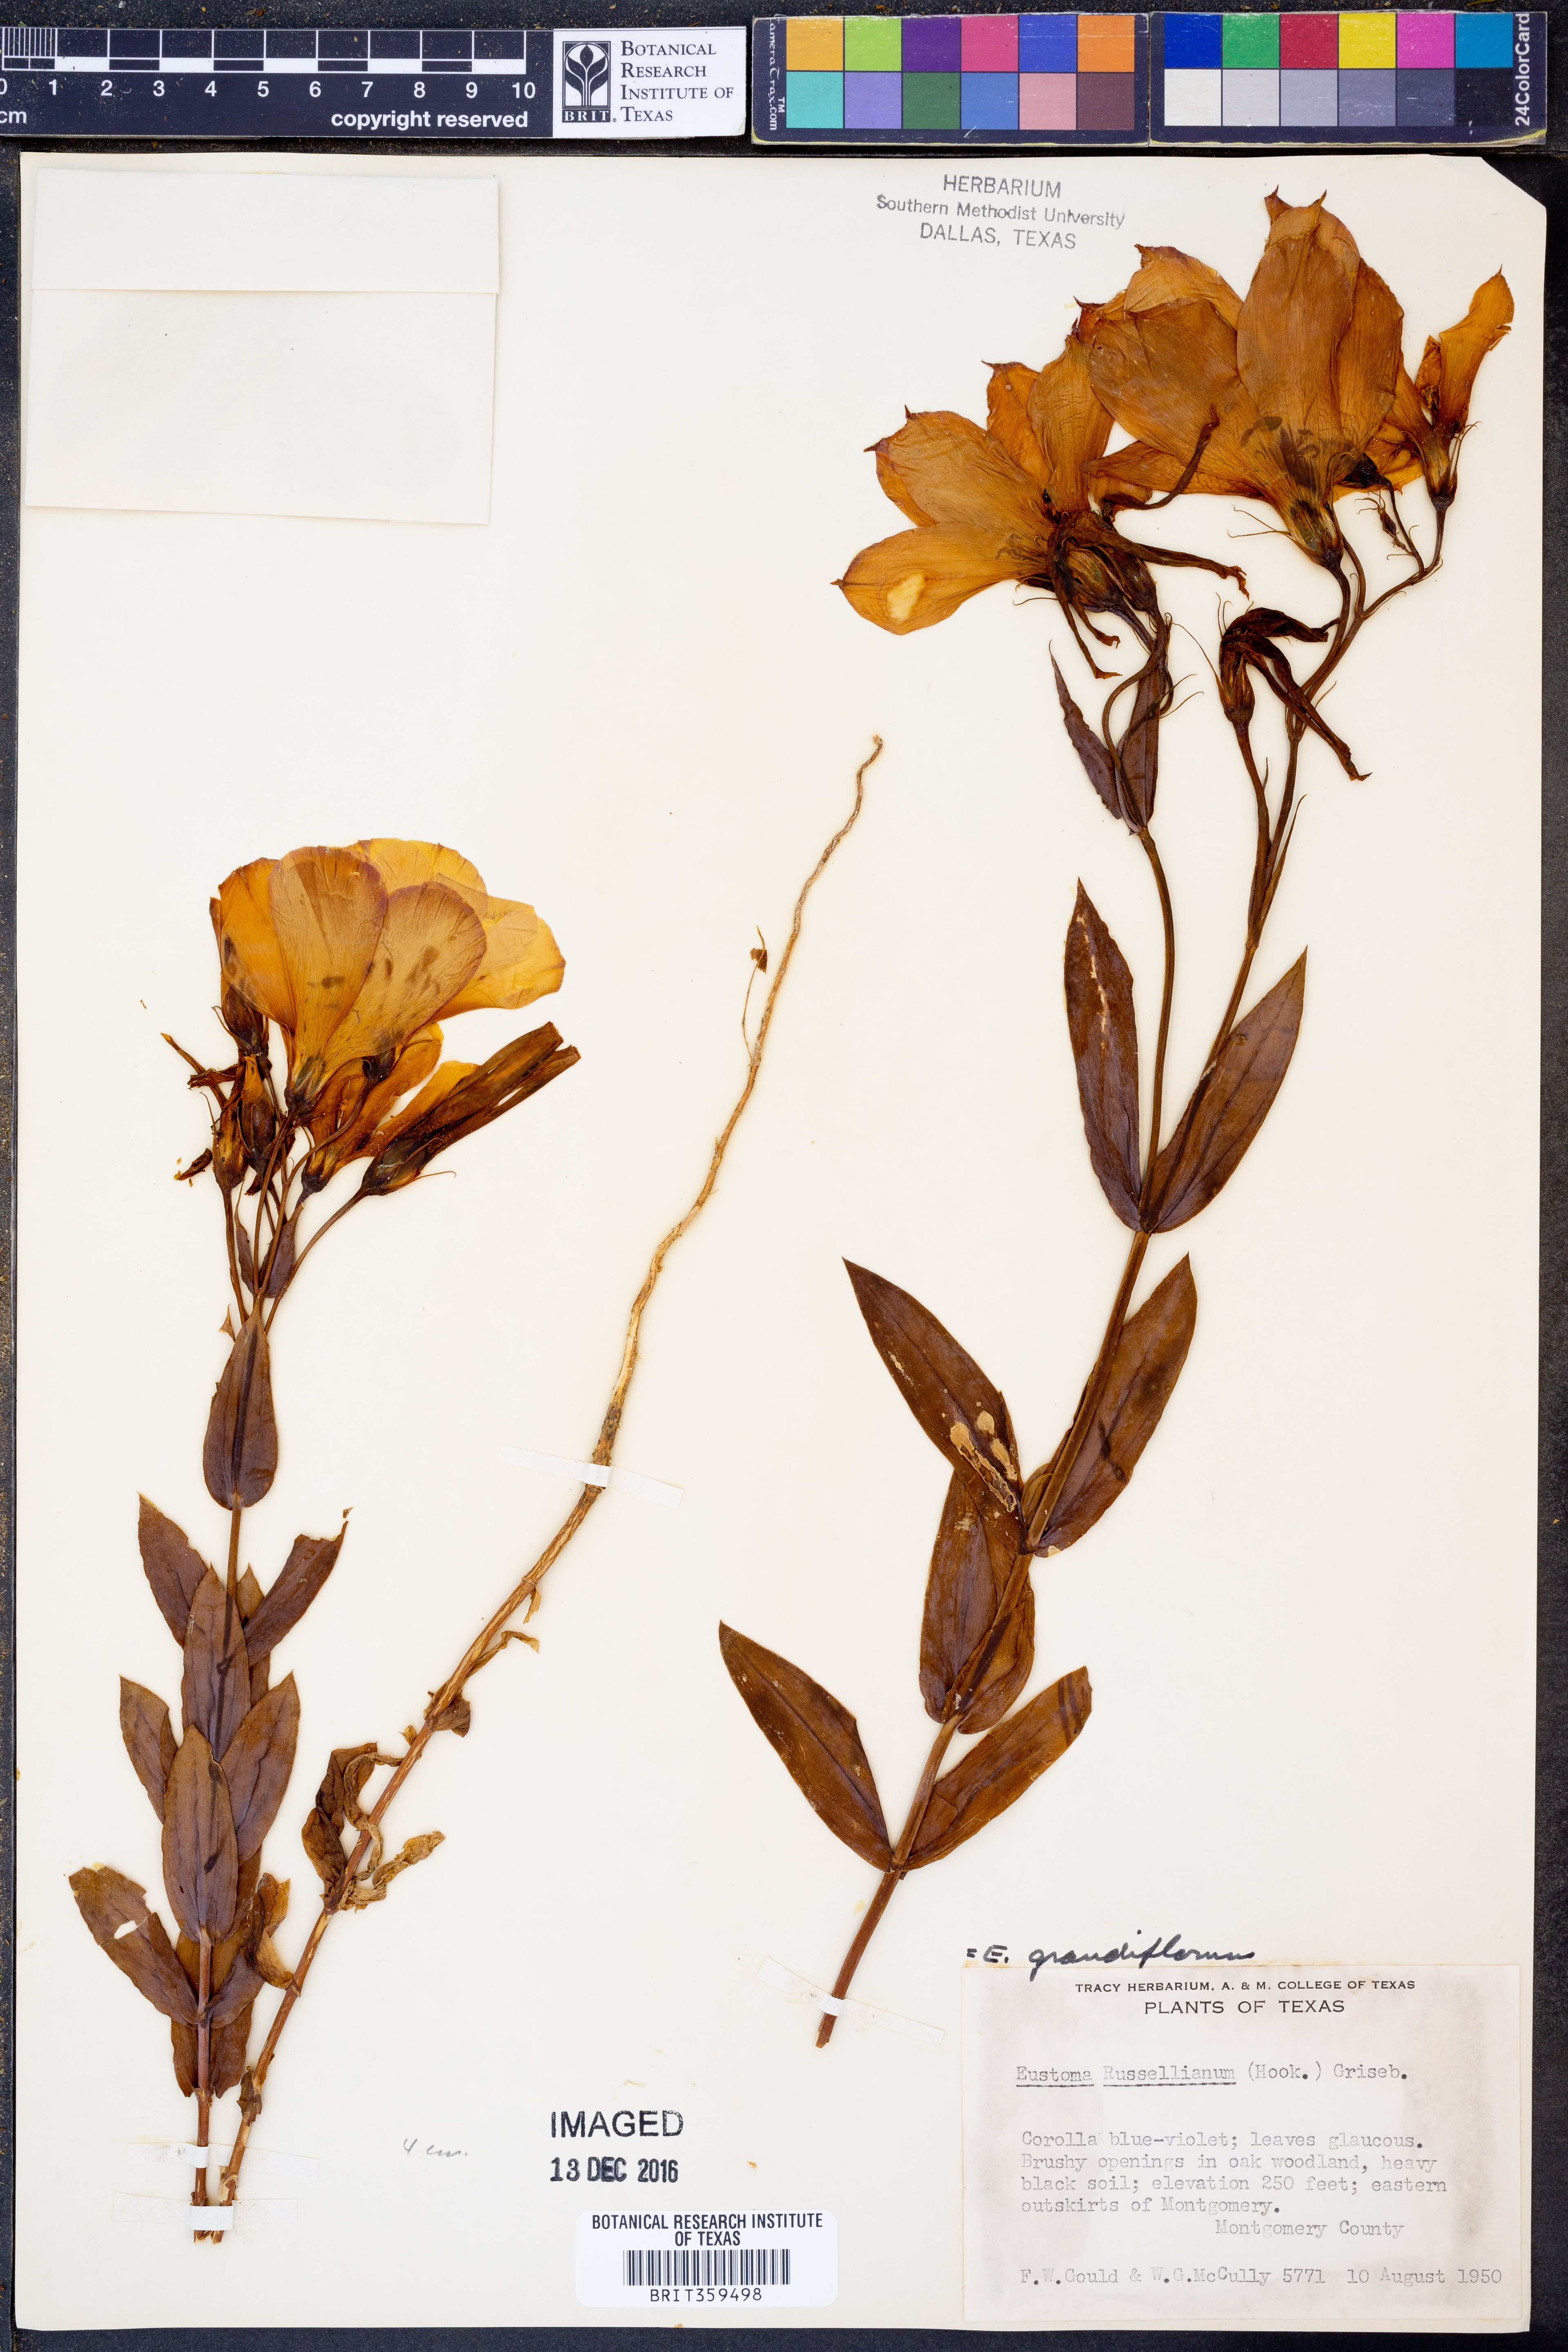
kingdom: Plantae
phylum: Tracheophyta
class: Magnoliopsida
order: Gentianales
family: Gentianaceae
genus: Eustoma
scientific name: Eustoma russellianum
